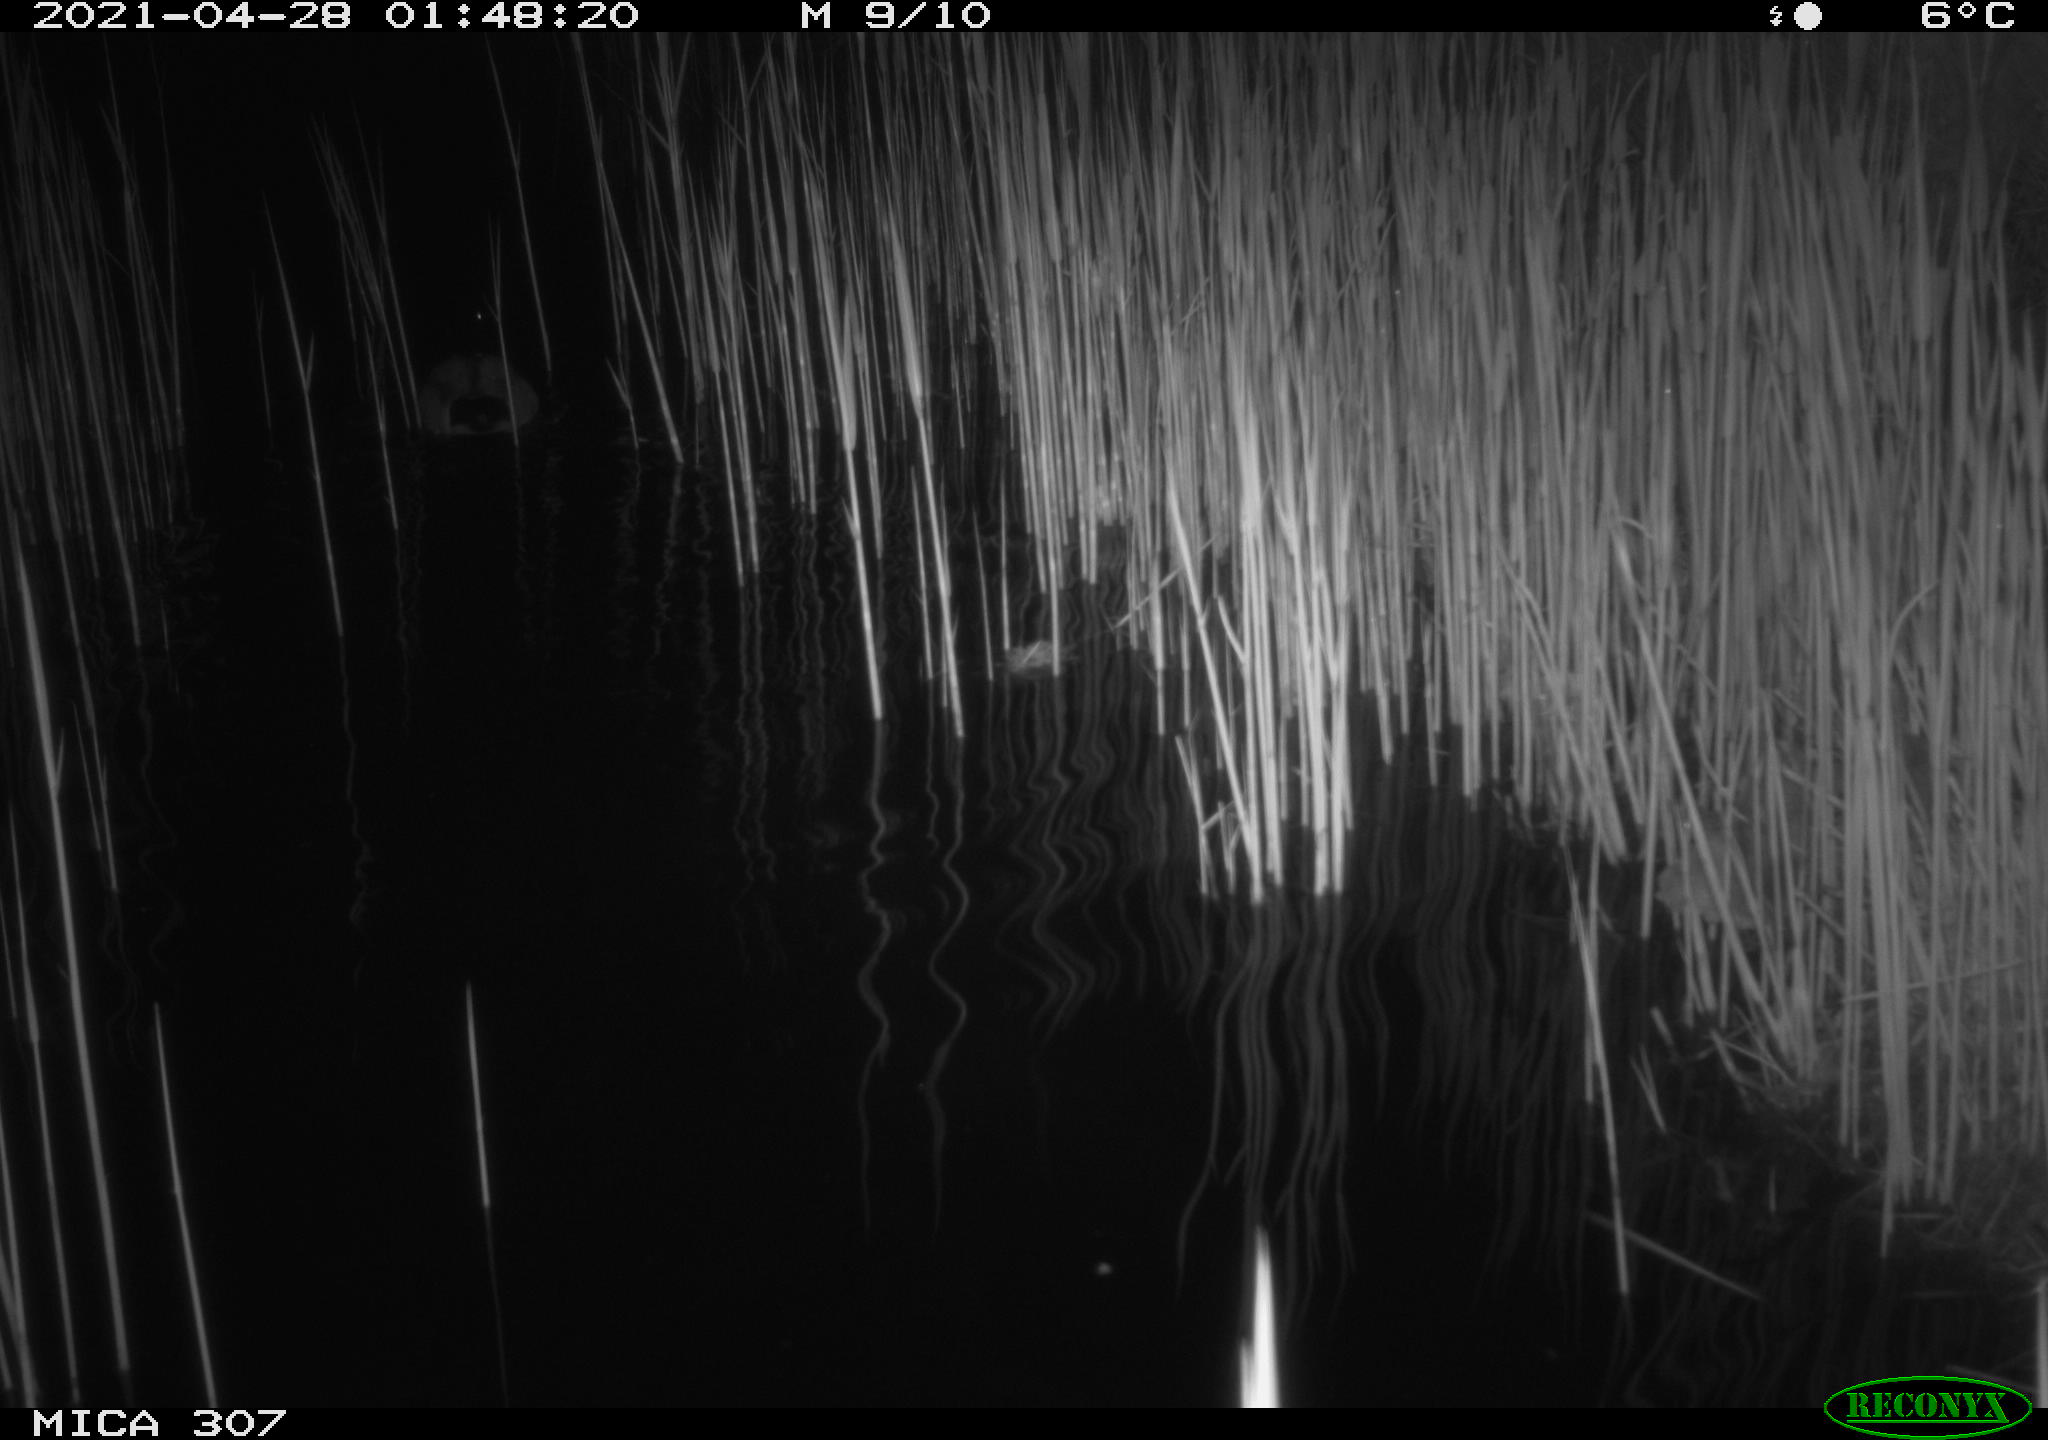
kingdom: Animalia
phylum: Chordata
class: Aves
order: Gruiformes
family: Rallidae
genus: Gallinula
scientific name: Gallinula chloropus
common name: Common moorhen
